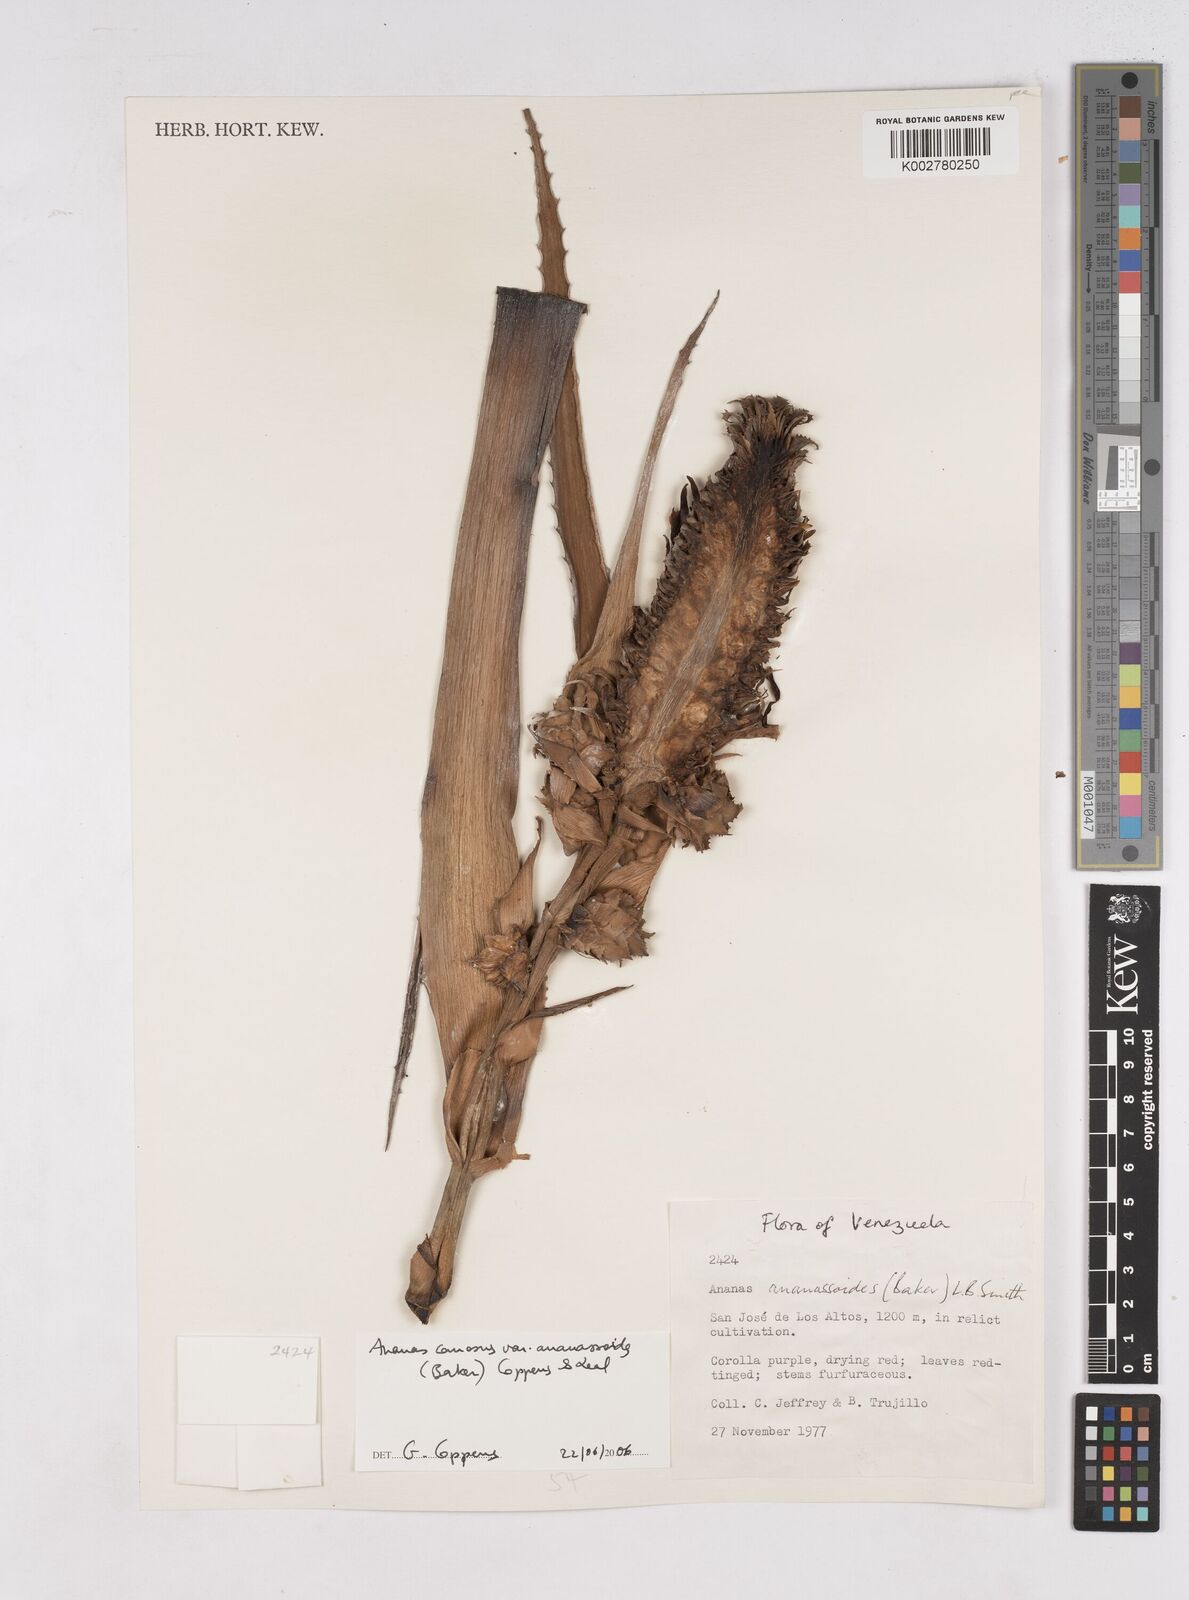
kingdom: Plantae
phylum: Tracheophyta
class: Liliopsida
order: Poales
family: Bromeliaceae
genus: Ananas
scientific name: Ananas comosus
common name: Pineapple
